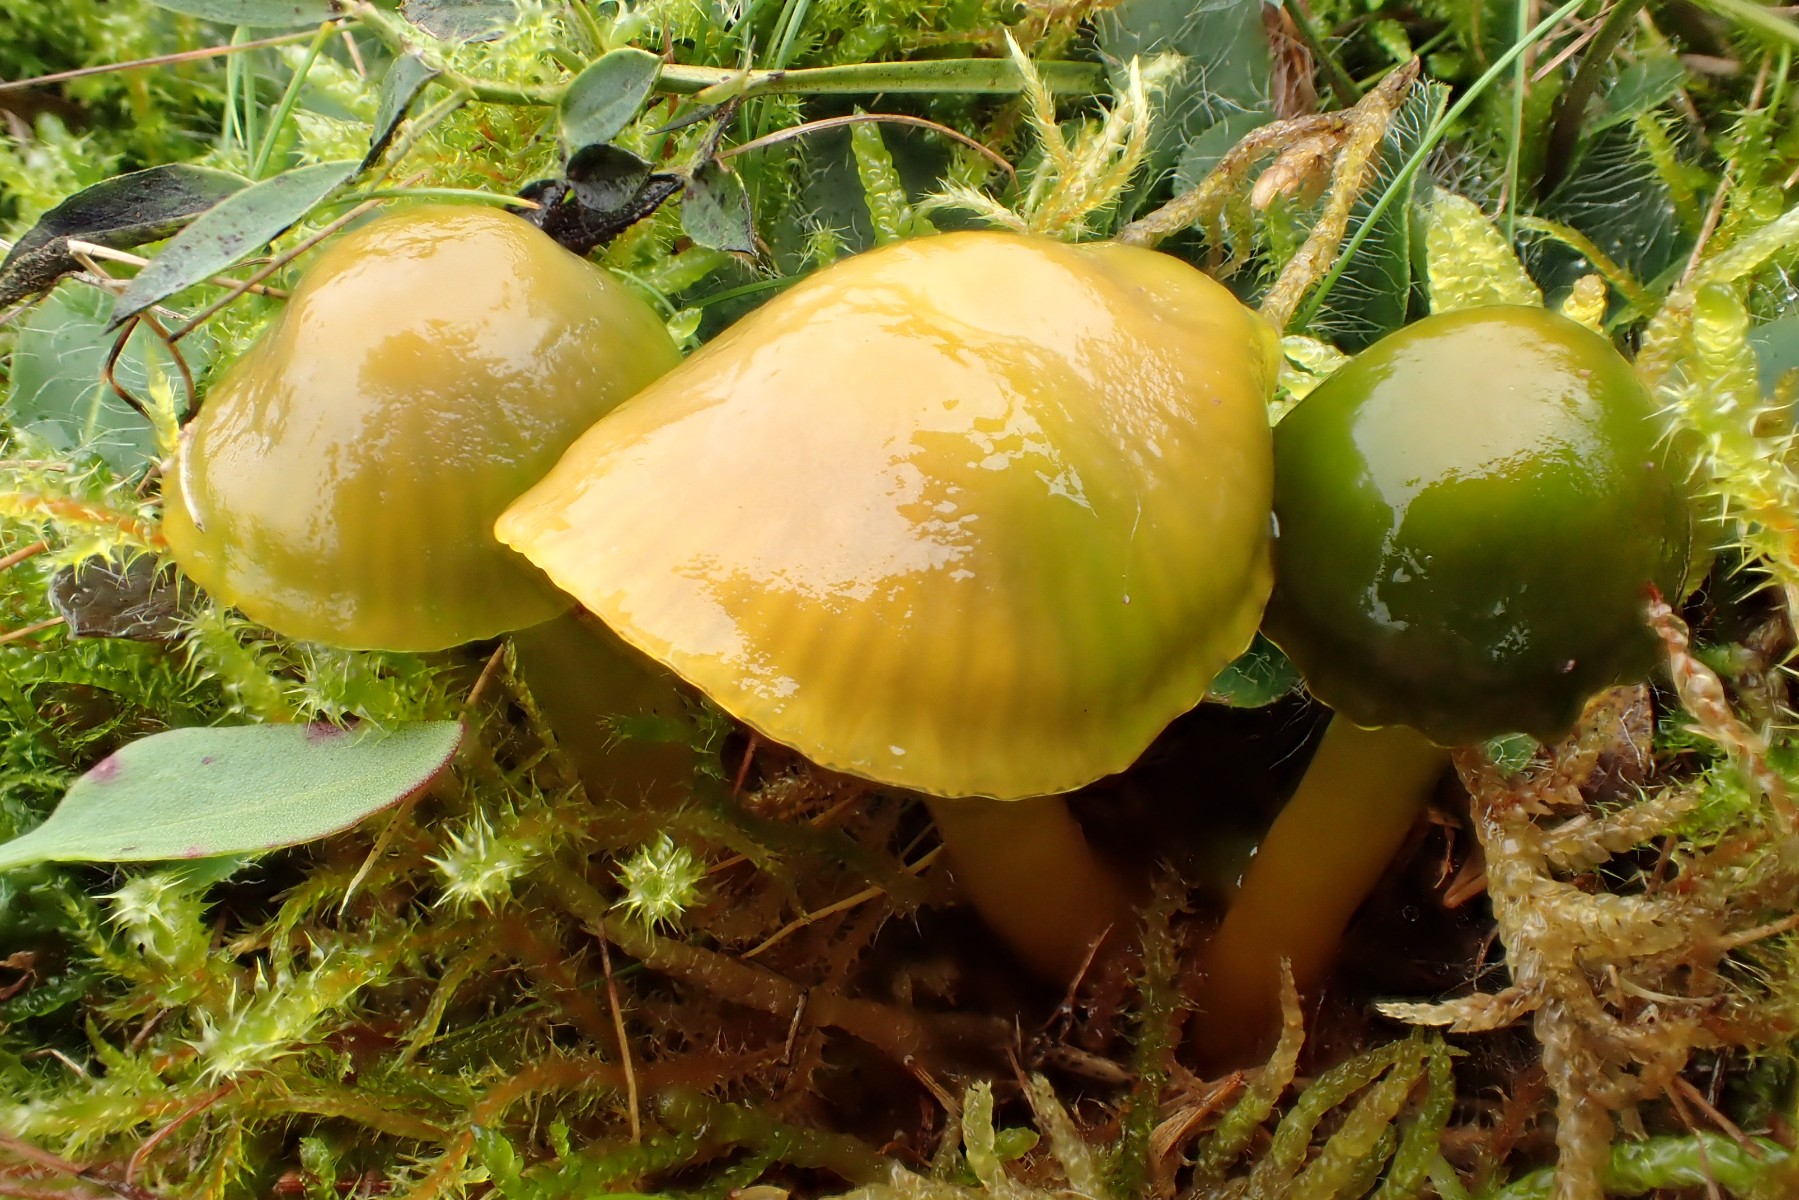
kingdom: Fungi
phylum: Basidiomycota
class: Agaricomycetes
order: Agaricales
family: Hygrophoraceae
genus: Gliophorus
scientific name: Gliophorus psittacinus
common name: papegøje-vokshat
